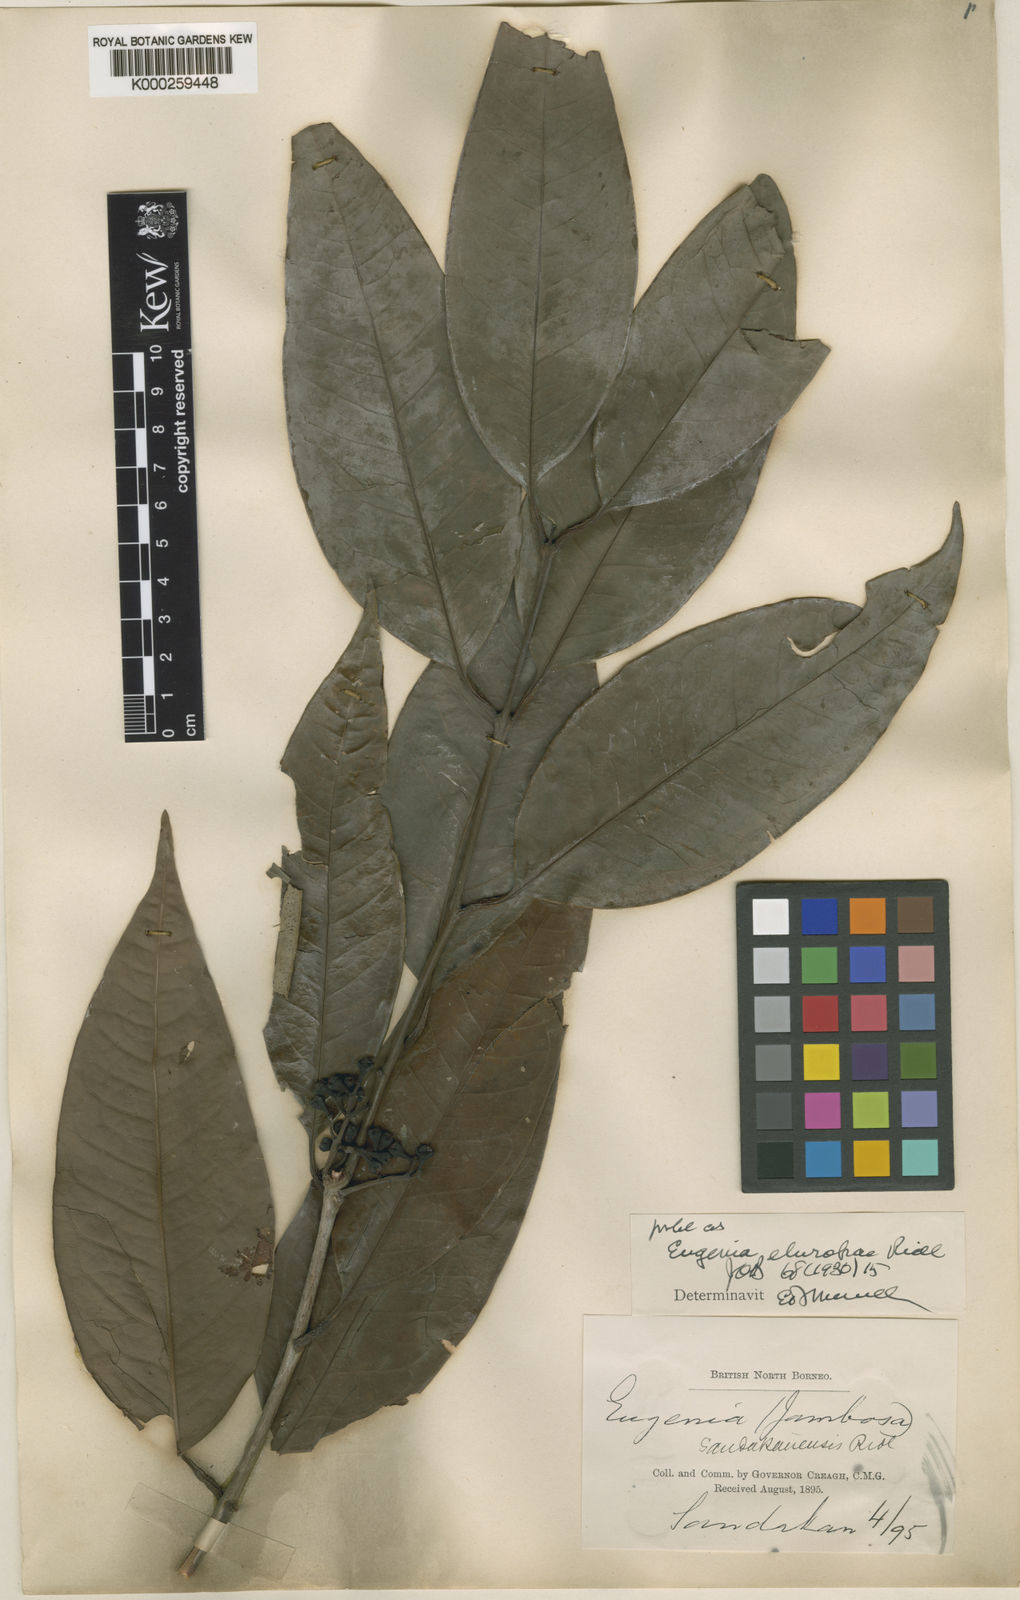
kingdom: Plantae
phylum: Tracheophyta
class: Magnoliopsida
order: Myrtales
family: Myrtaceae
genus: Syzygium
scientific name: Syzygium elopurae
